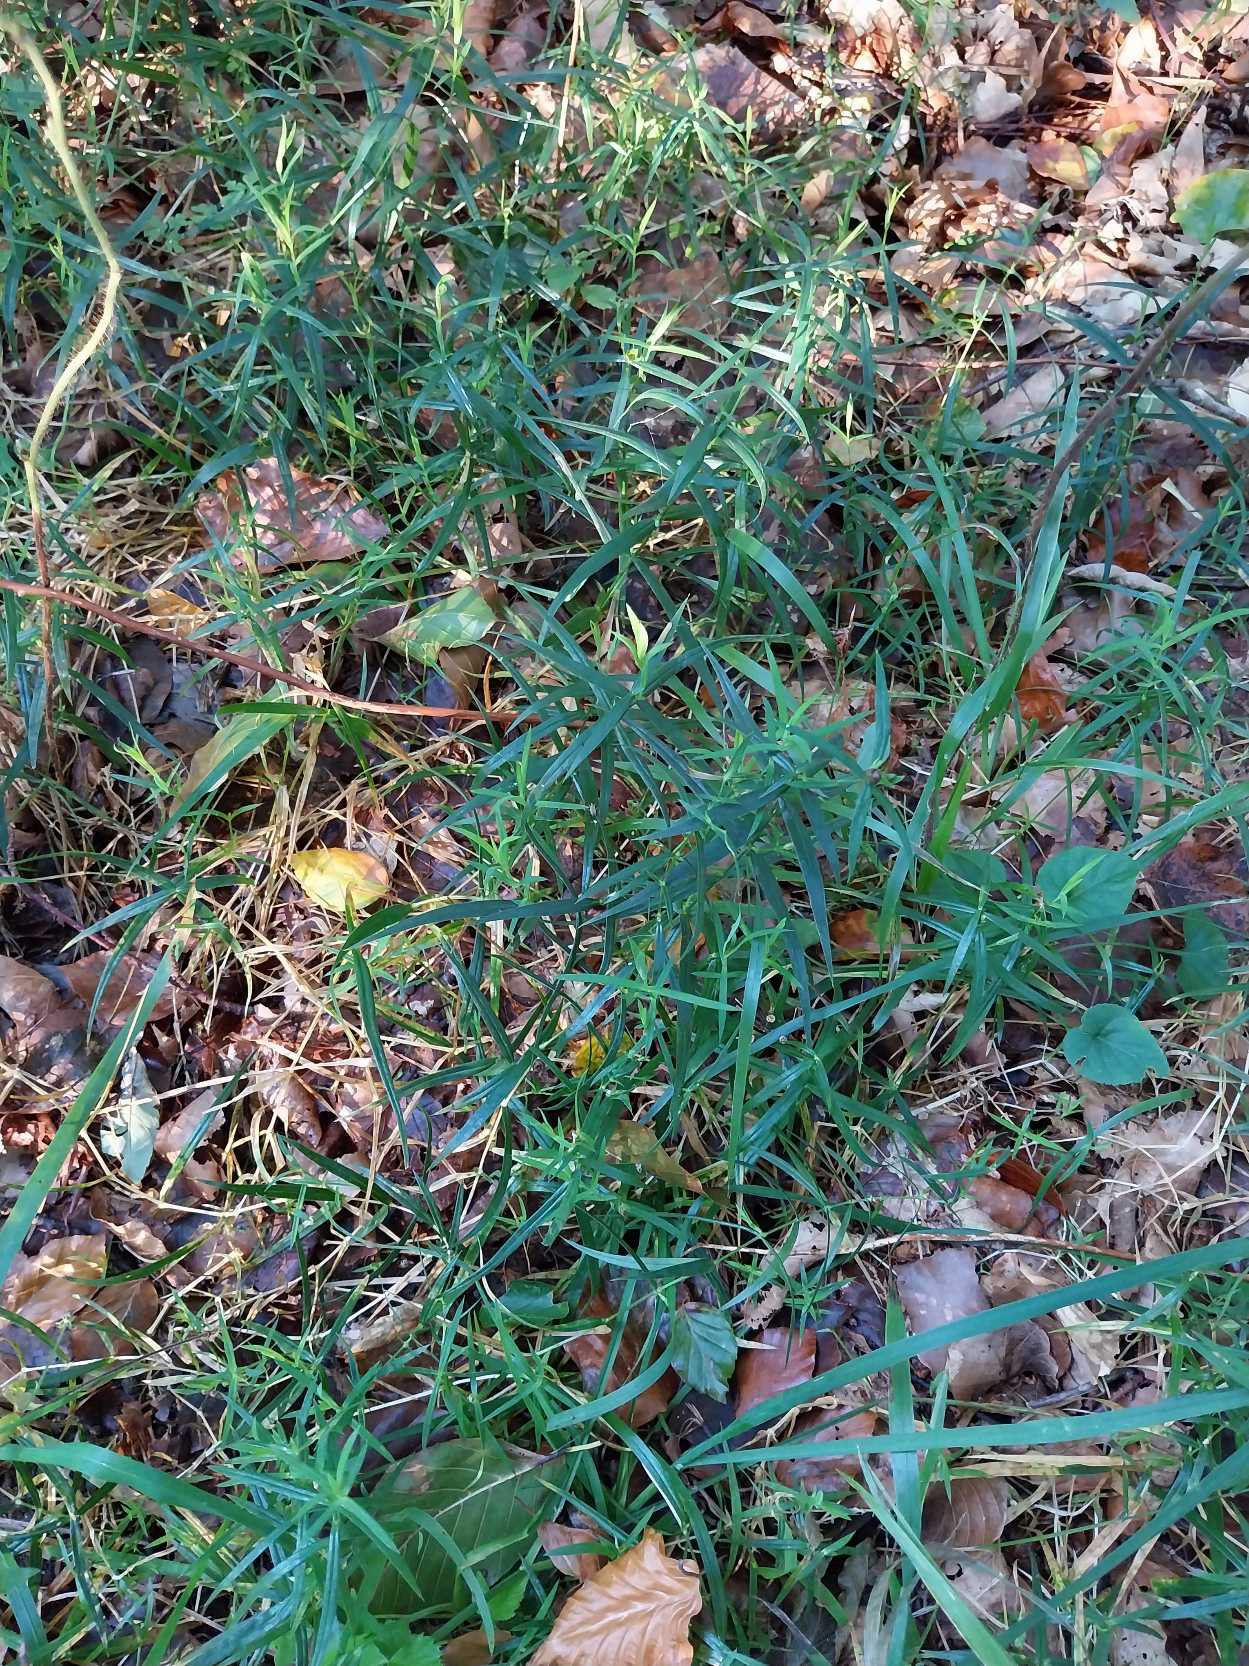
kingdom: Plantae
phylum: Tracheophyta
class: Magnoliopsida
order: Caryophyllales
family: Caryophyllaceae
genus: Rabelera
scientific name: Rabelera holostea
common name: Stor fladstjerne
